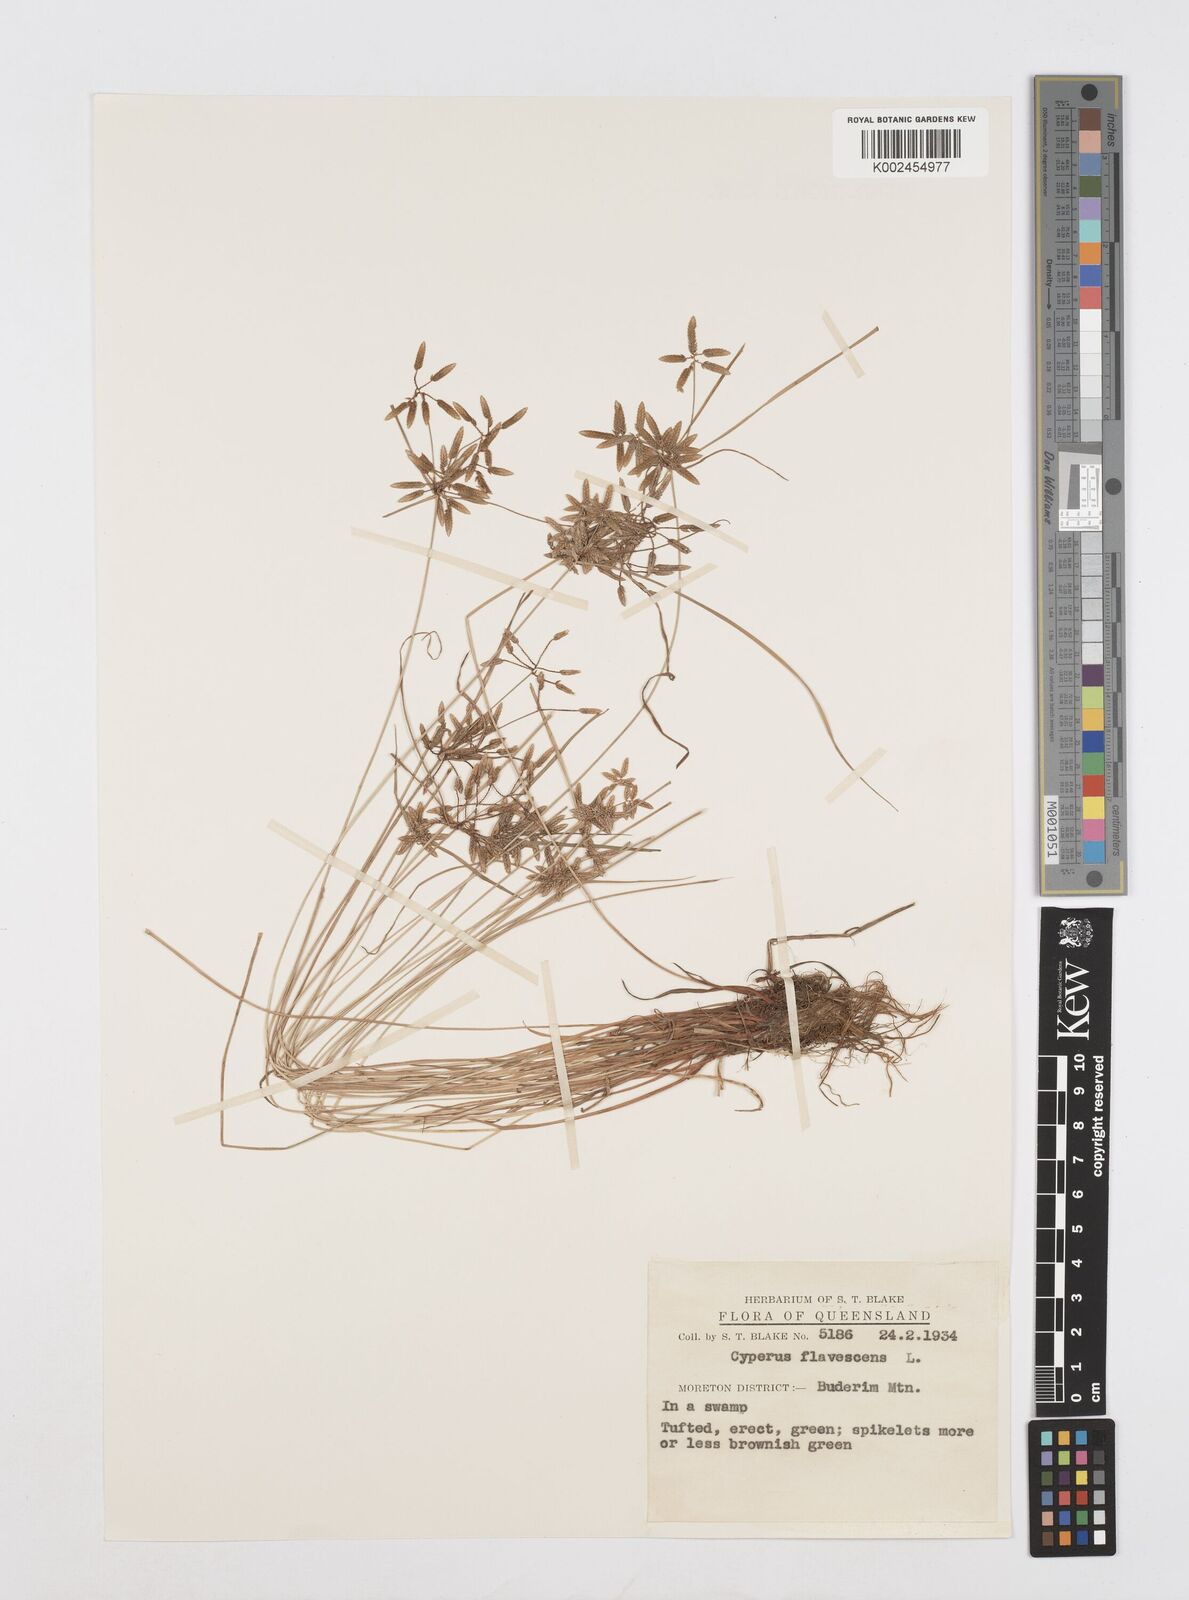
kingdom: Plantae
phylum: Tracheophyta
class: Liliopsida
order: Poales
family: Cyperaceae
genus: Cyperus
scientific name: Cyperus flavescens
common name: Yellow galingale
